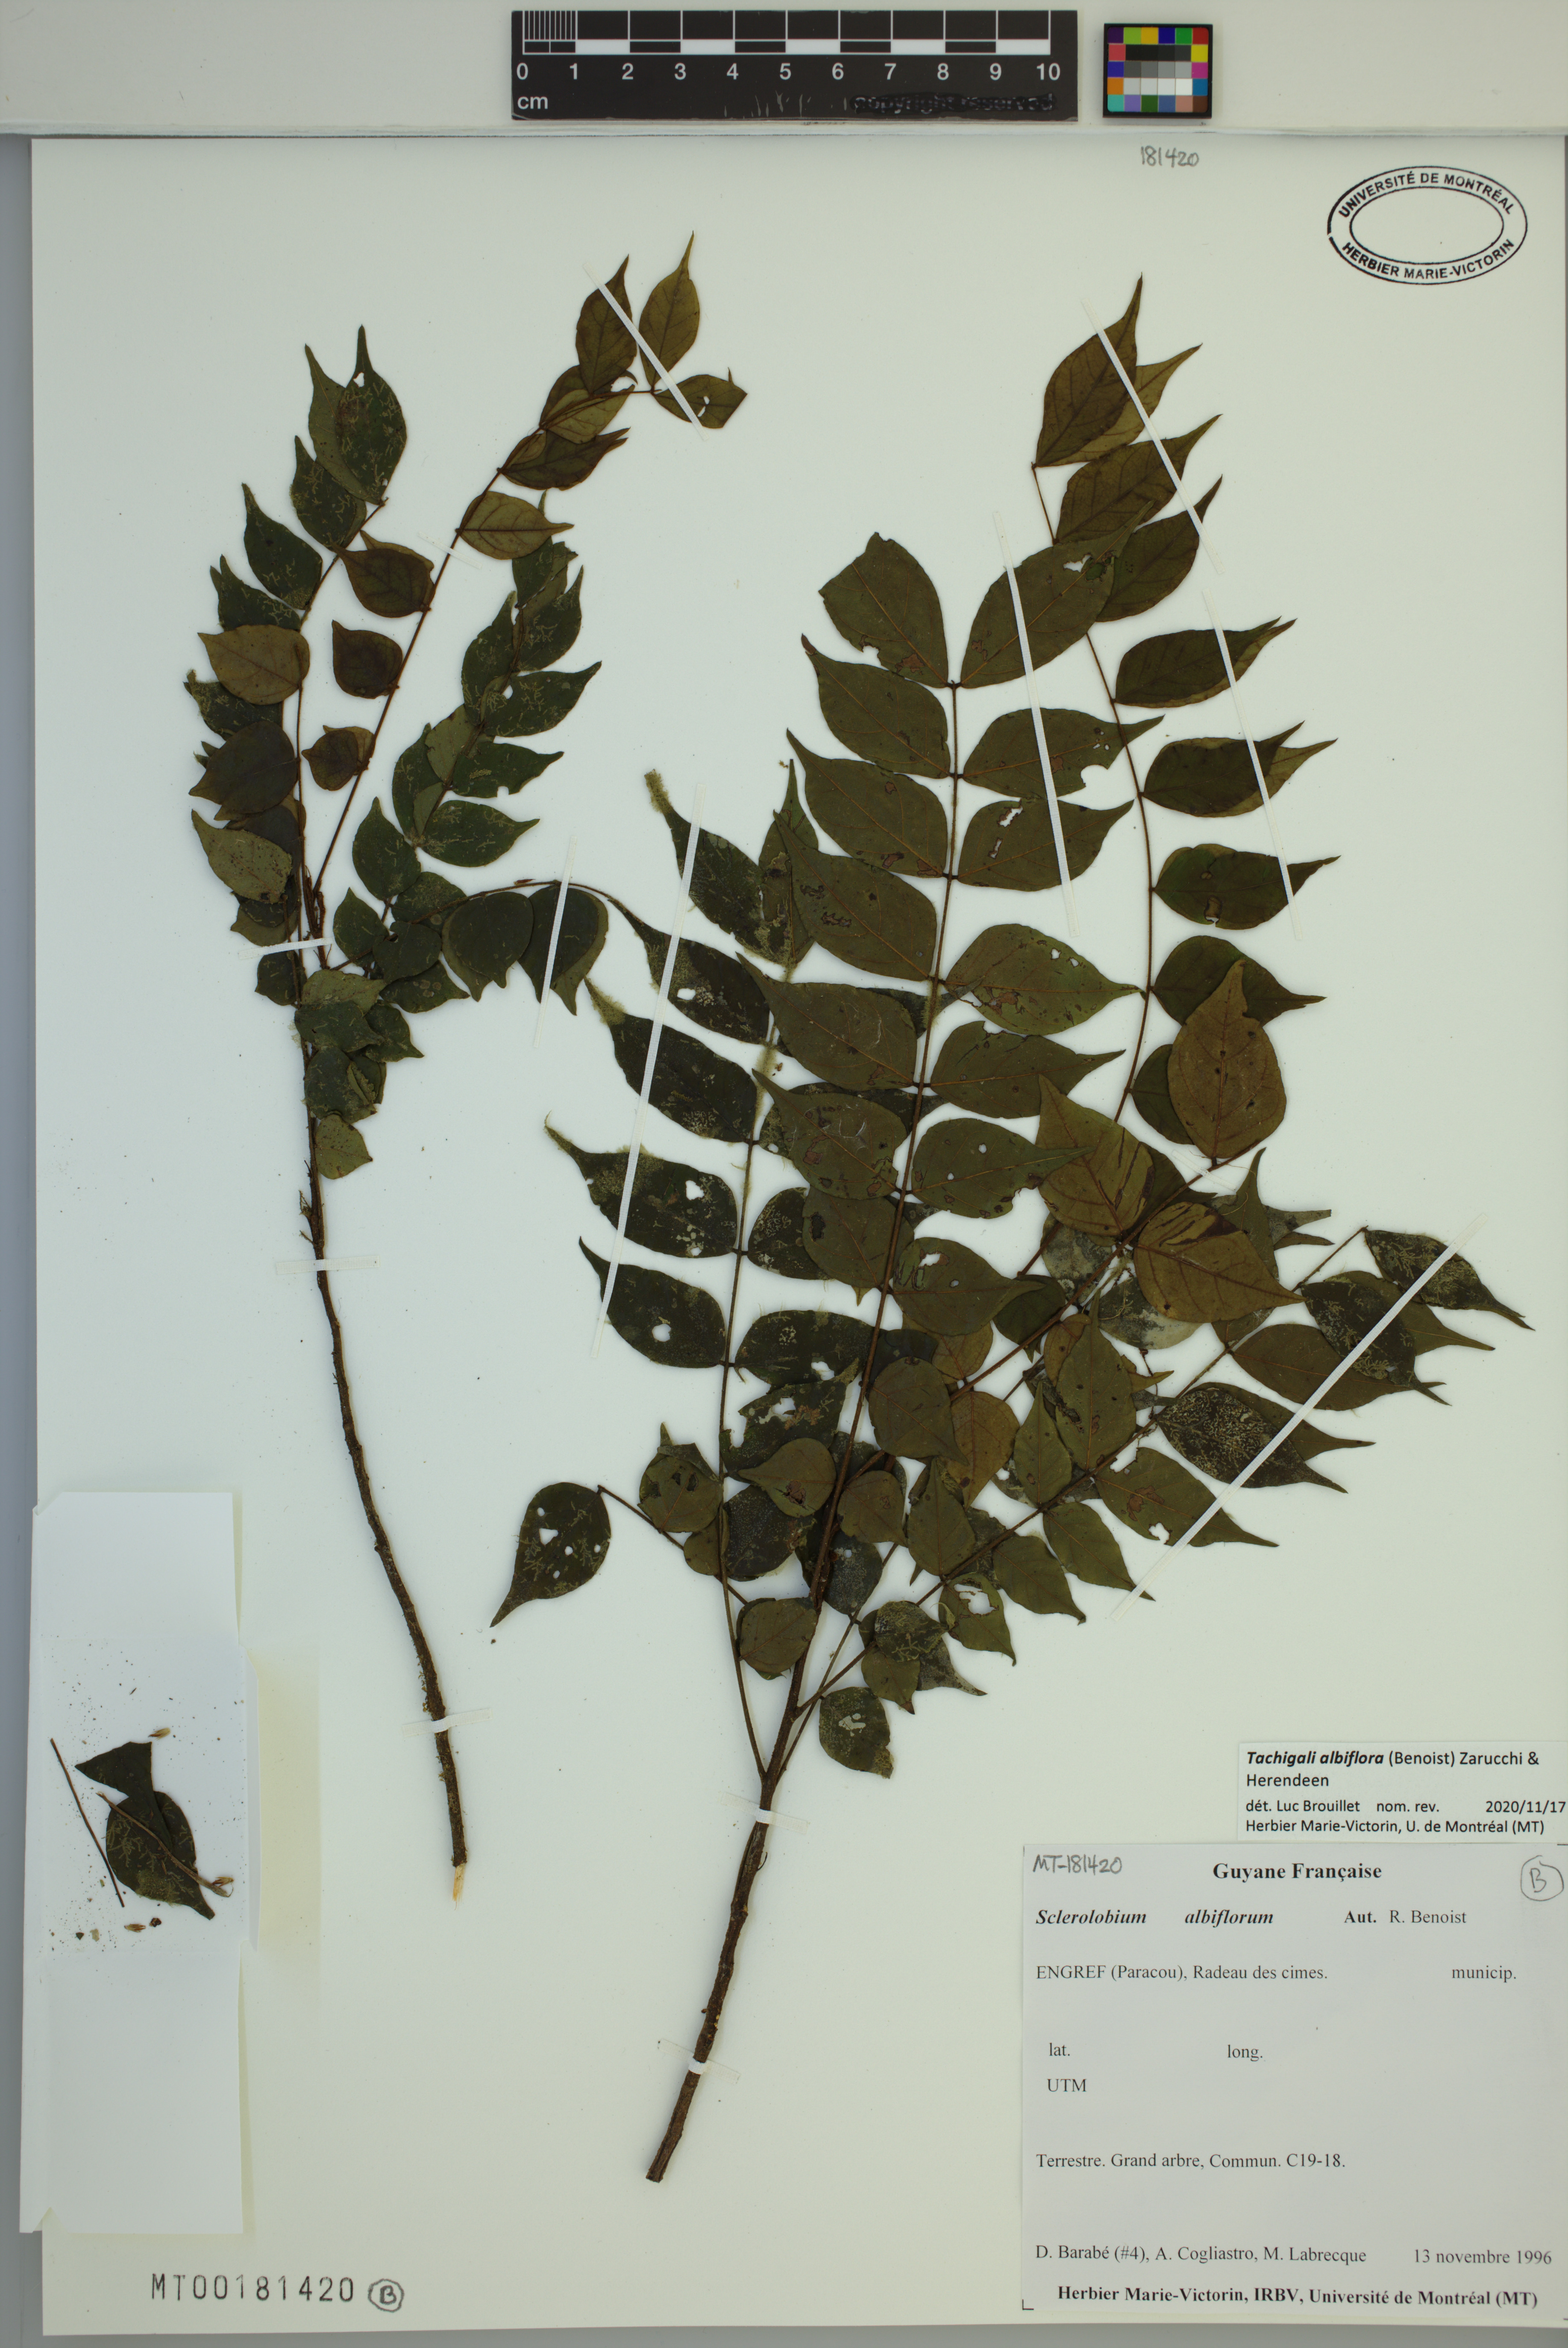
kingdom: Plantae
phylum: Tracheophyta
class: Magnoliopsida
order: Fabales
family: Fabaceae
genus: Tachigali
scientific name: Tachigali albiflora
